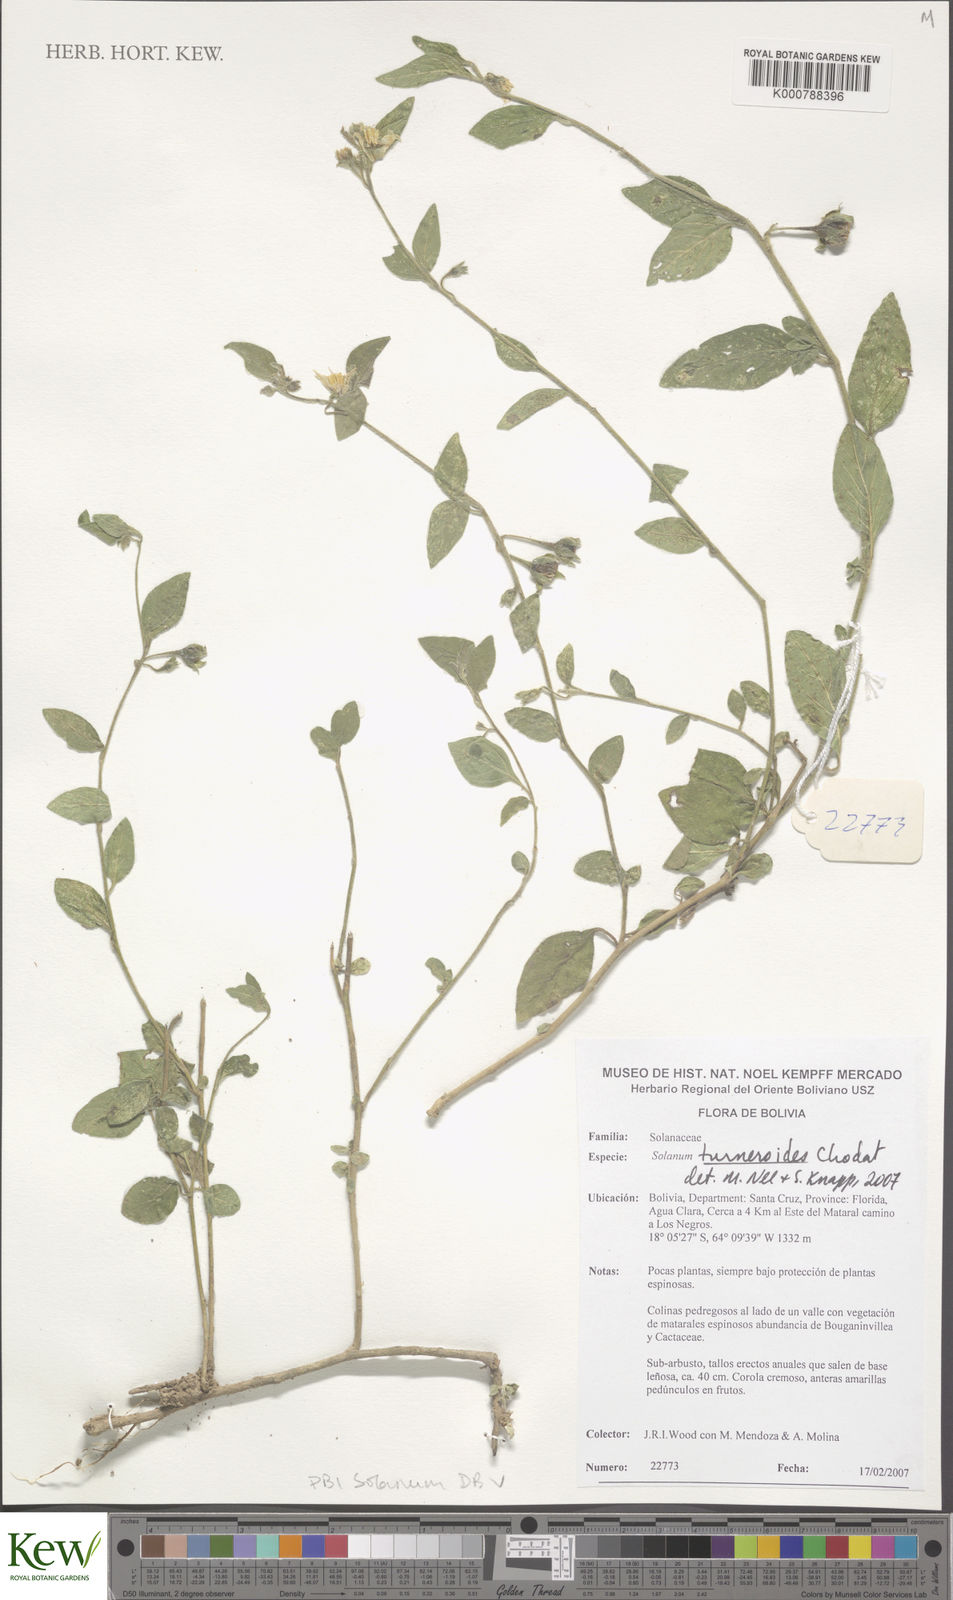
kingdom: Plantae
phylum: Tracheophyta
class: Magnoliopsida
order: Solanales
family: Solanaceae
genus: Solanum
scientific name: Solanum turneroides
